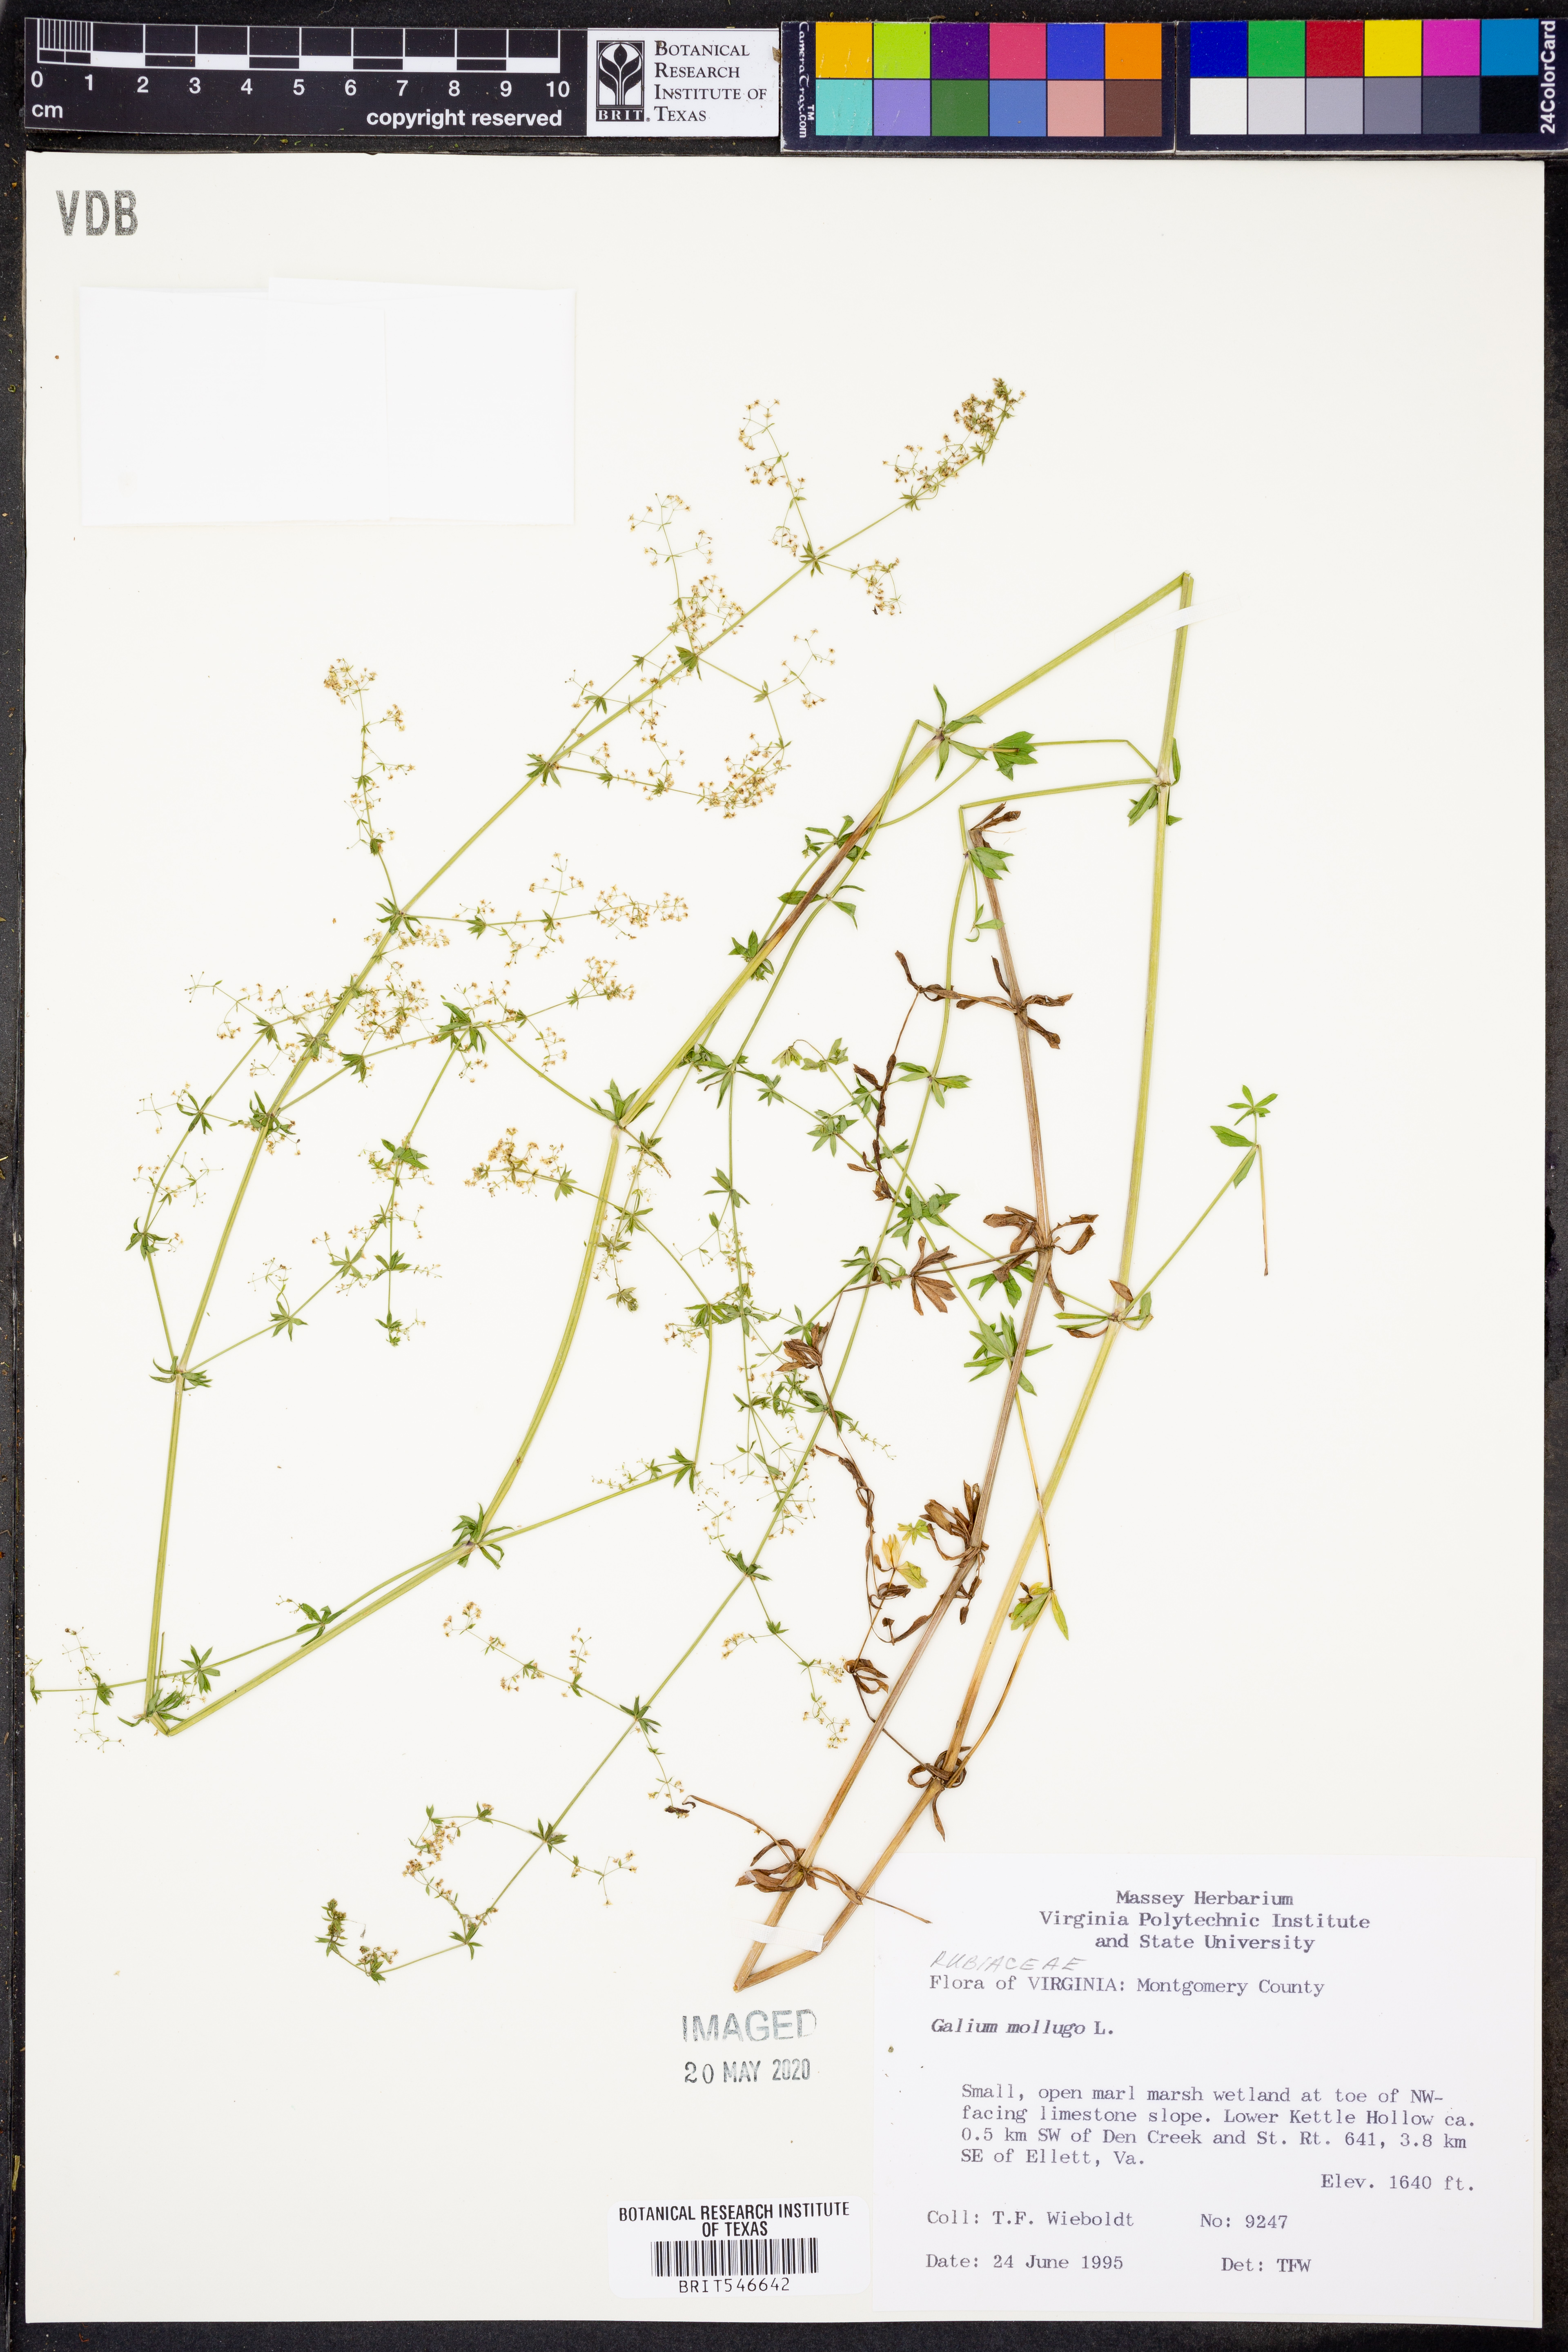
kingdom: Plantae
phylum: Tracheophyta
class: Magnoliopsida
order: Gentianales
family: Rubiaceae
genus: Galium
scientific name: Galium mollugo
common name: Hedge bedstraw
